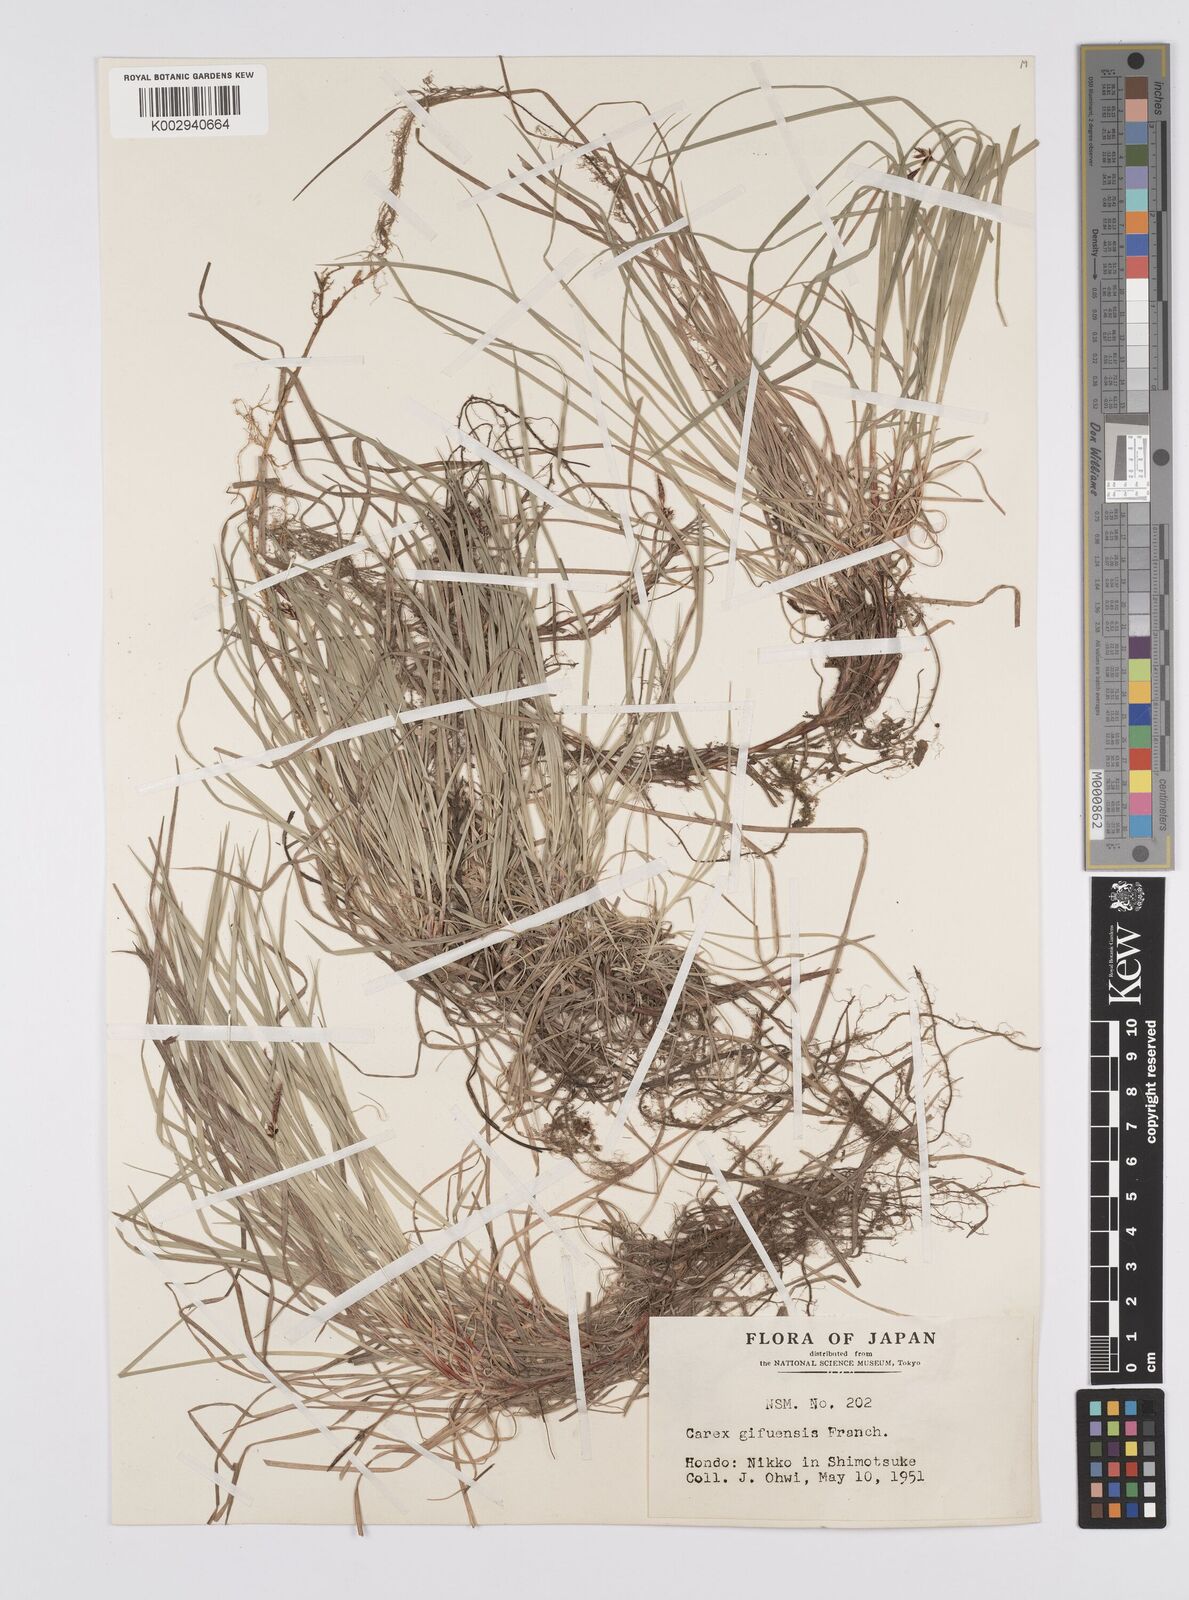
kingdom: Plantae
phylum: Tracheophyta
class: Liliopsida
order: Poales
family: Cyperaceae
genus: Carex
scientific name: Carex gifuensis
